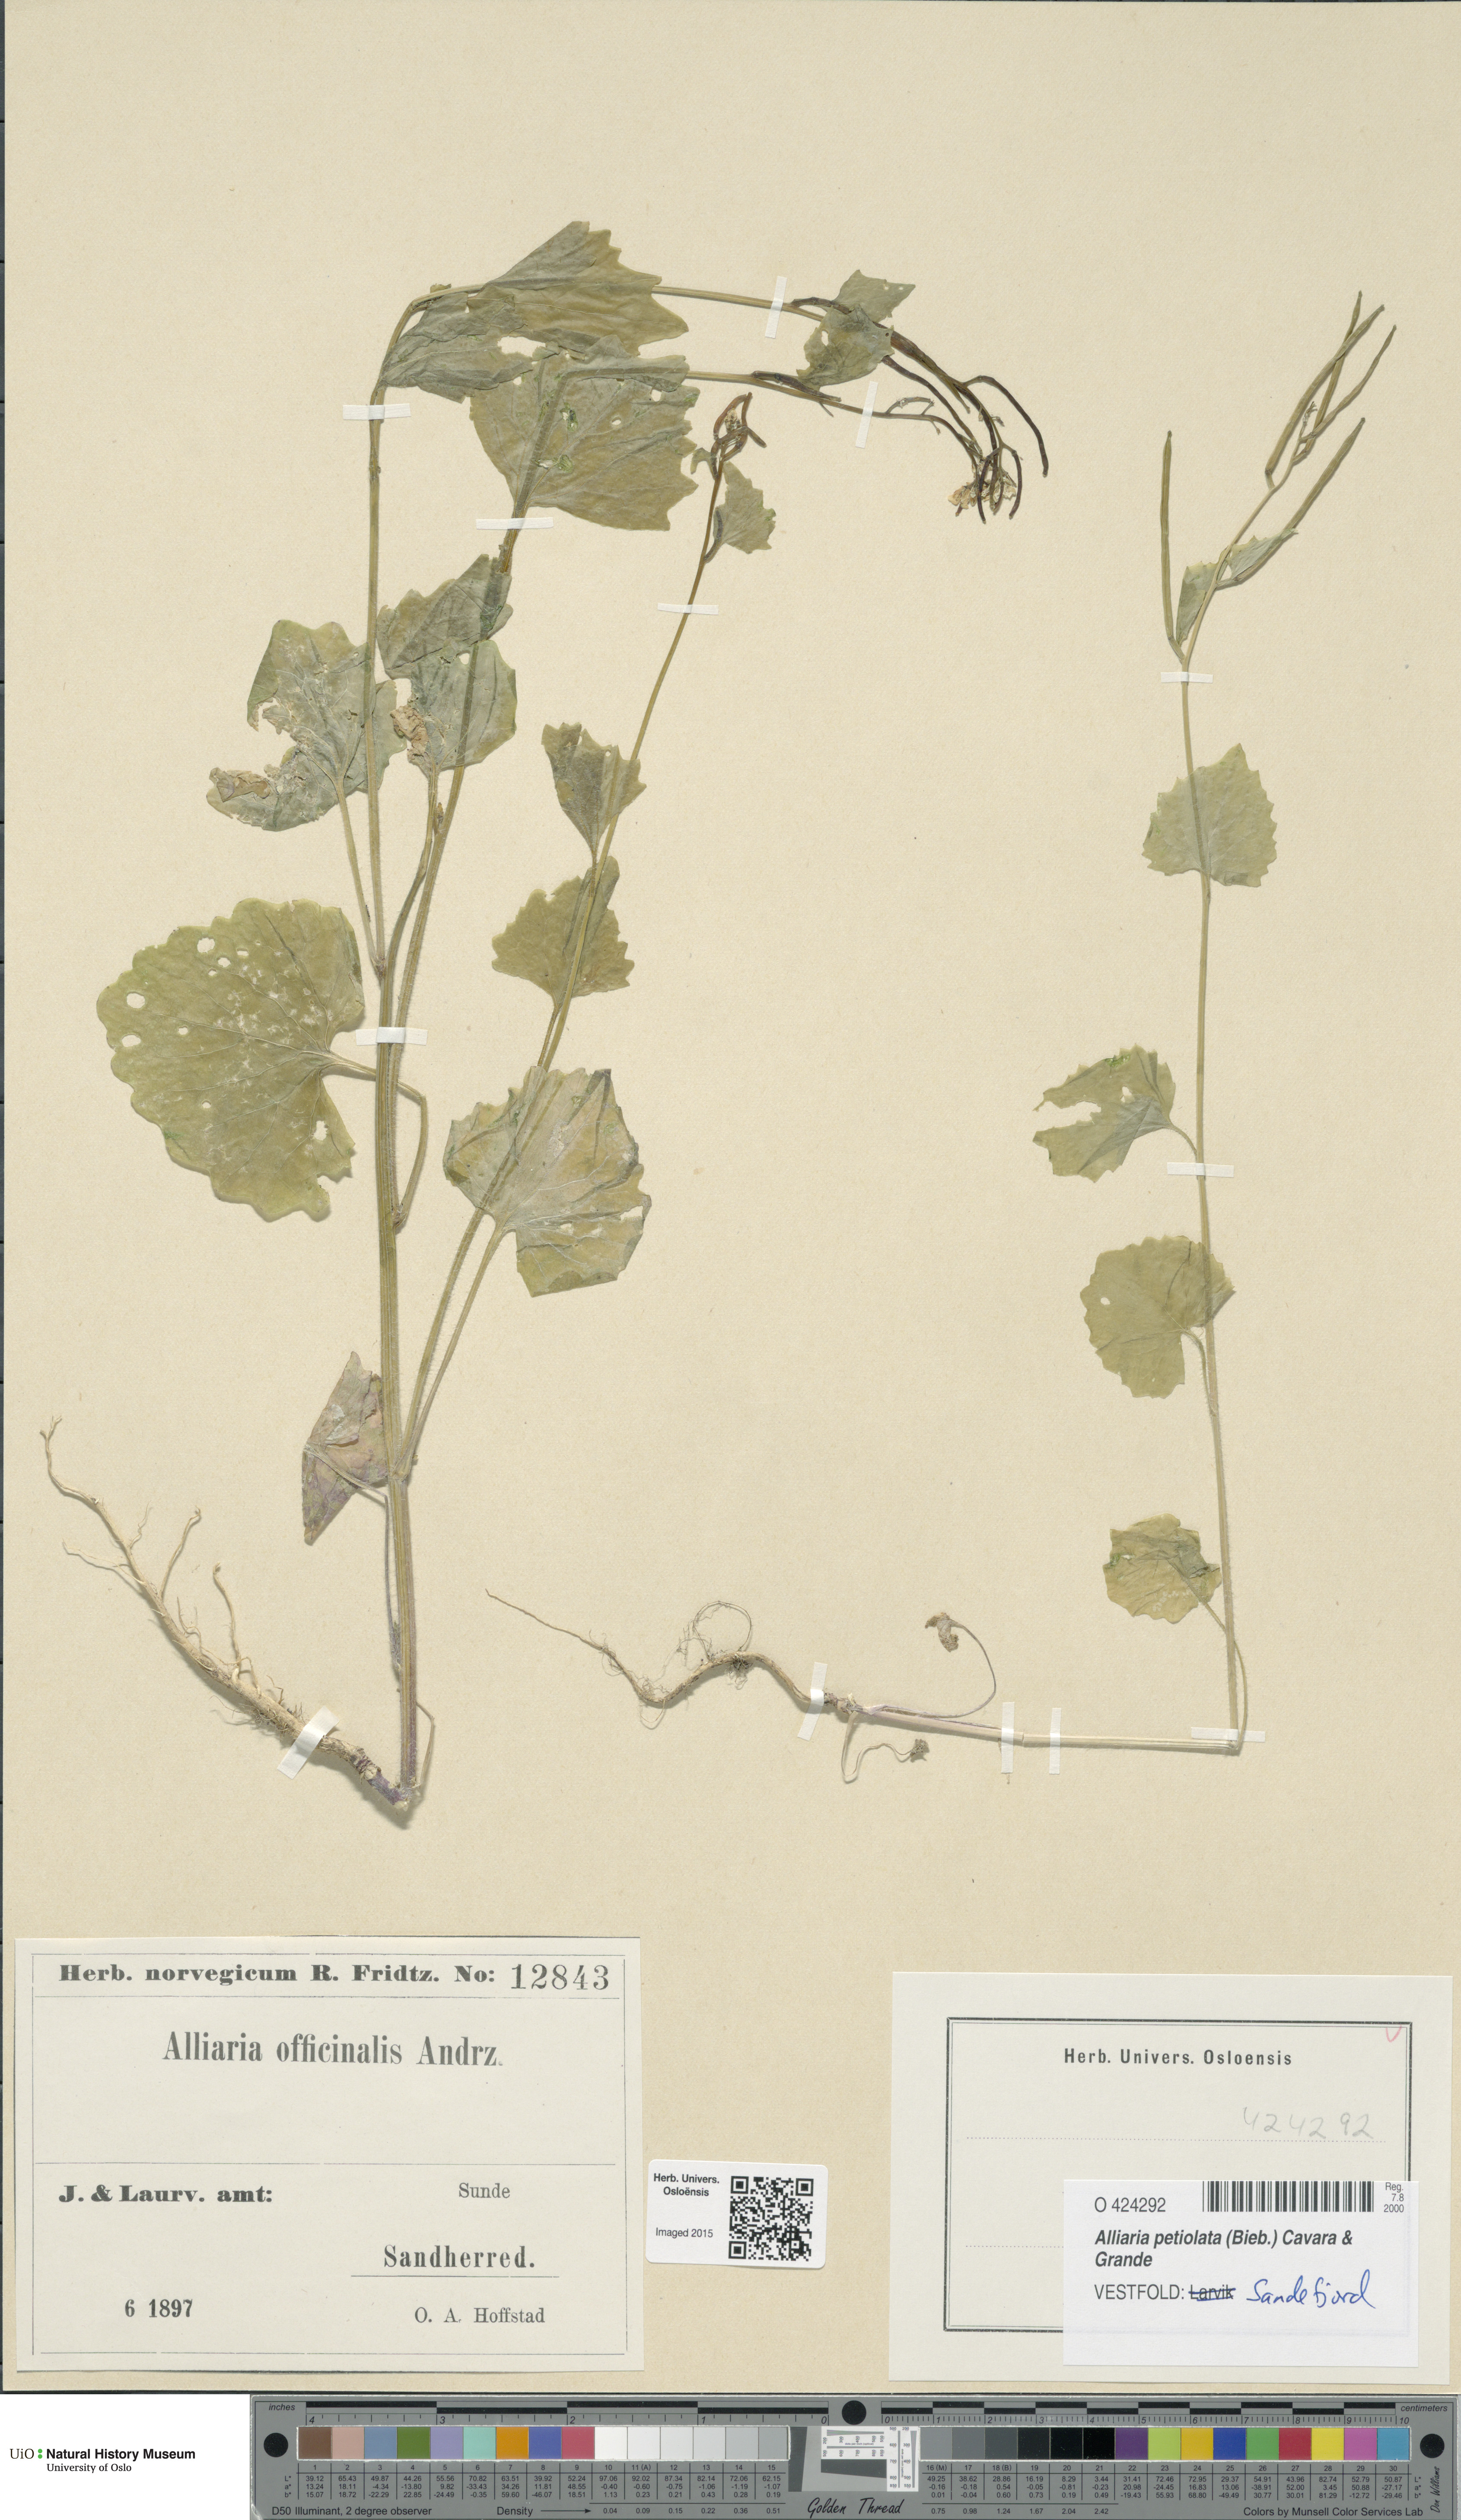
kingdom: Plantae
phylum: Tracheophyta
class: Magnoliopsida
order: Brassicales
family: Brassicaceae
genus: Alliaria
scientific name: Alliaria petiolata
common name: Garlic mustard
